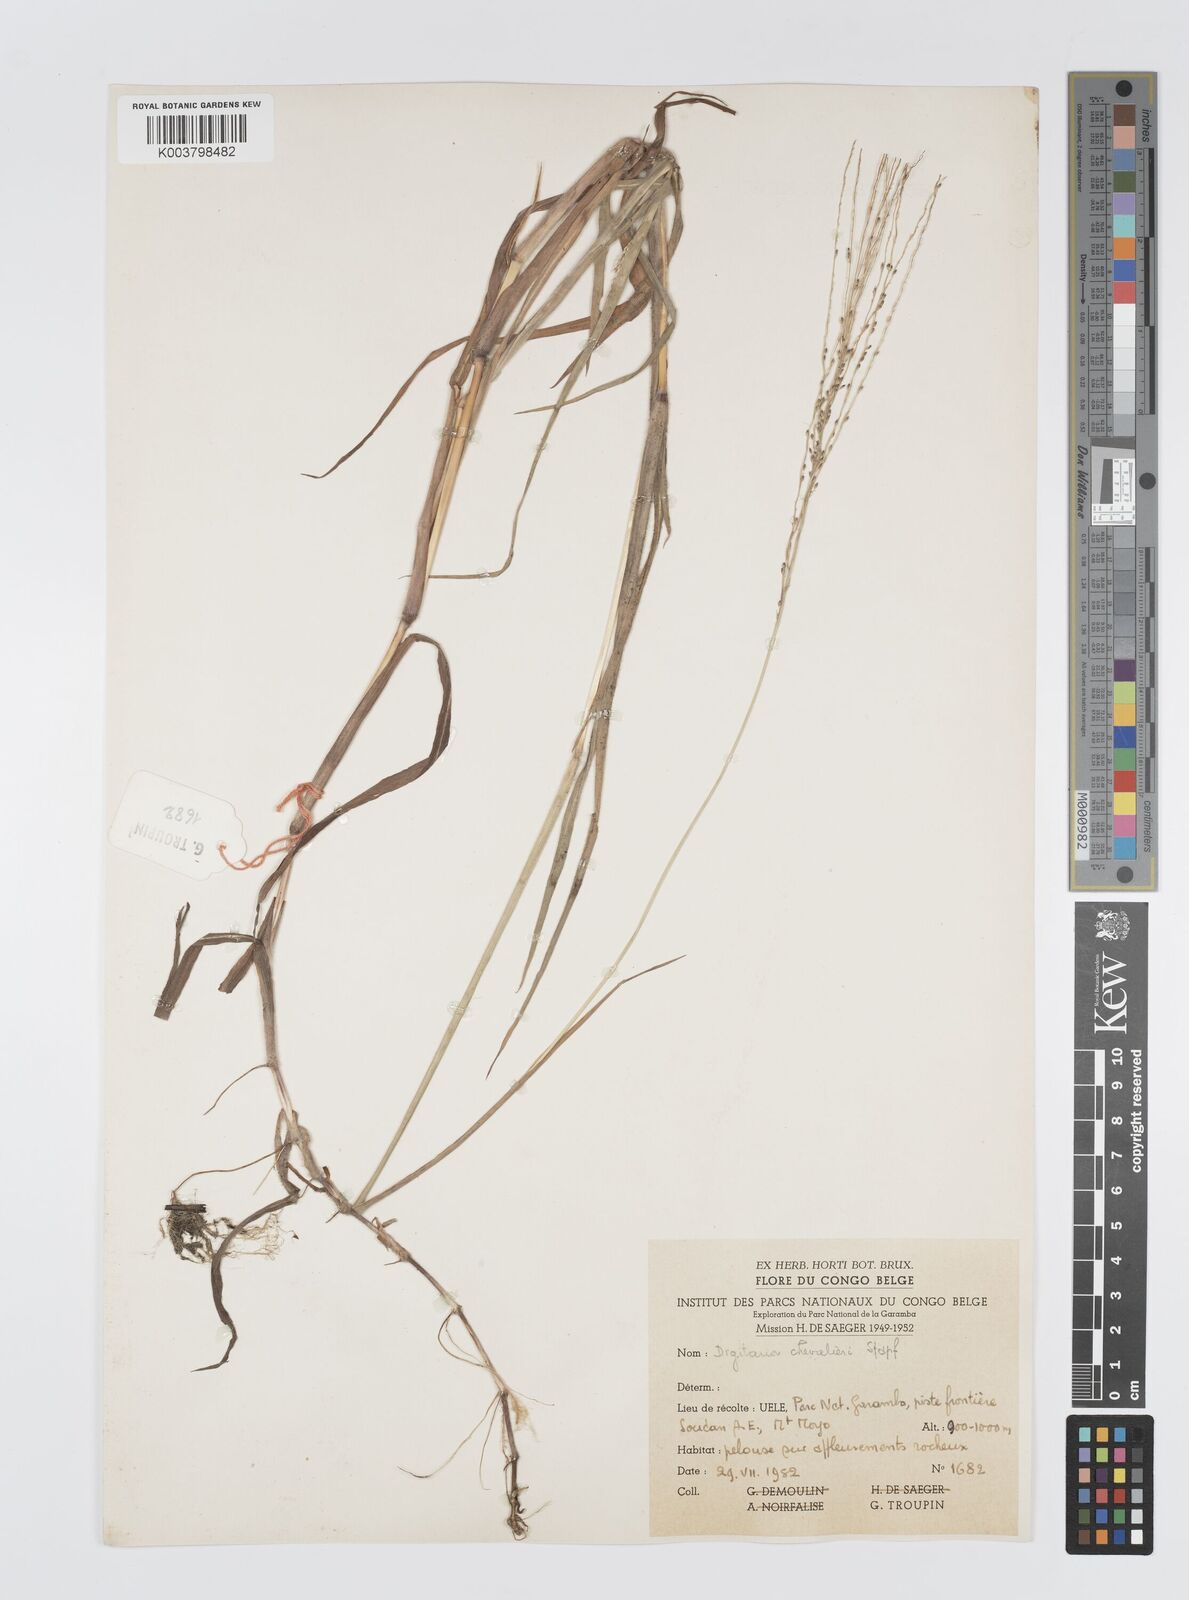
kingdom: Plantae
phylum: Tracheophyta
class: Liliopsida
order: Poales
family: Poaceae
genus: Digitaria
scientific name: Digitaria leptorhachis
